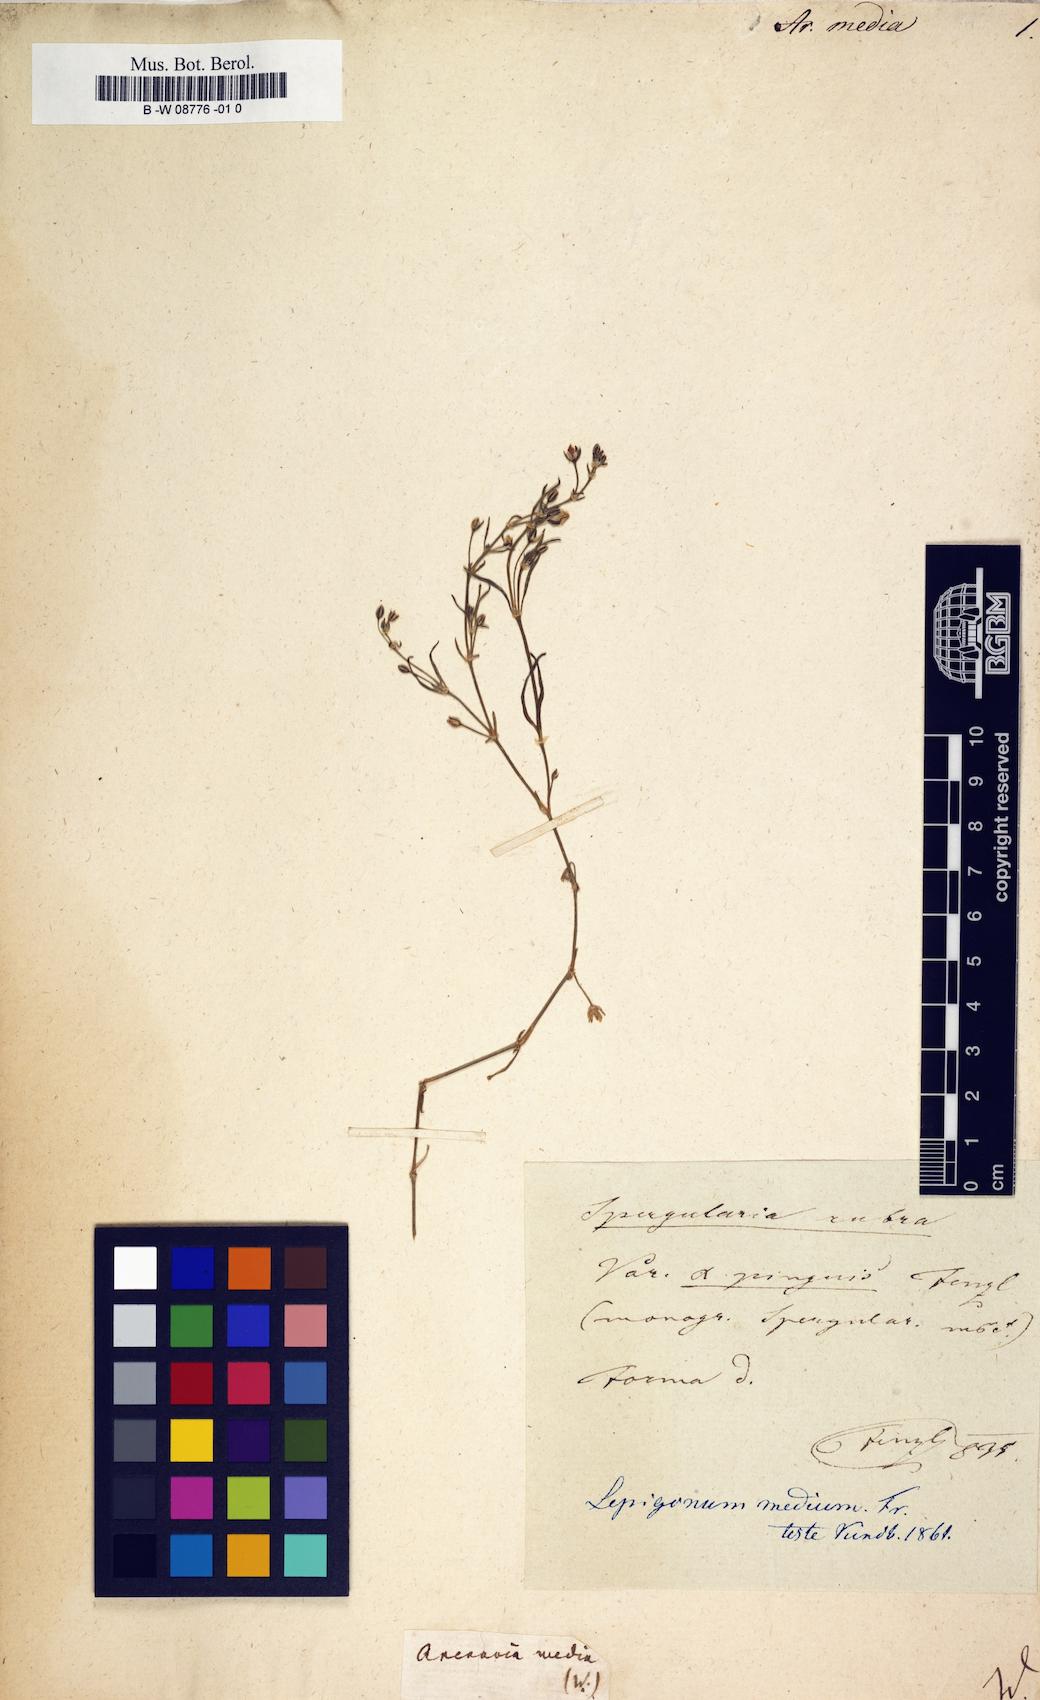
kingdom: Plantae
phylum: Tracheophyta
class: Magnoliopsida
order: Caryophyllales
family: Caryophyllaceae
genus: Spergularia
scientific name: Spergularia media
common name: Greater sea-spurrey
